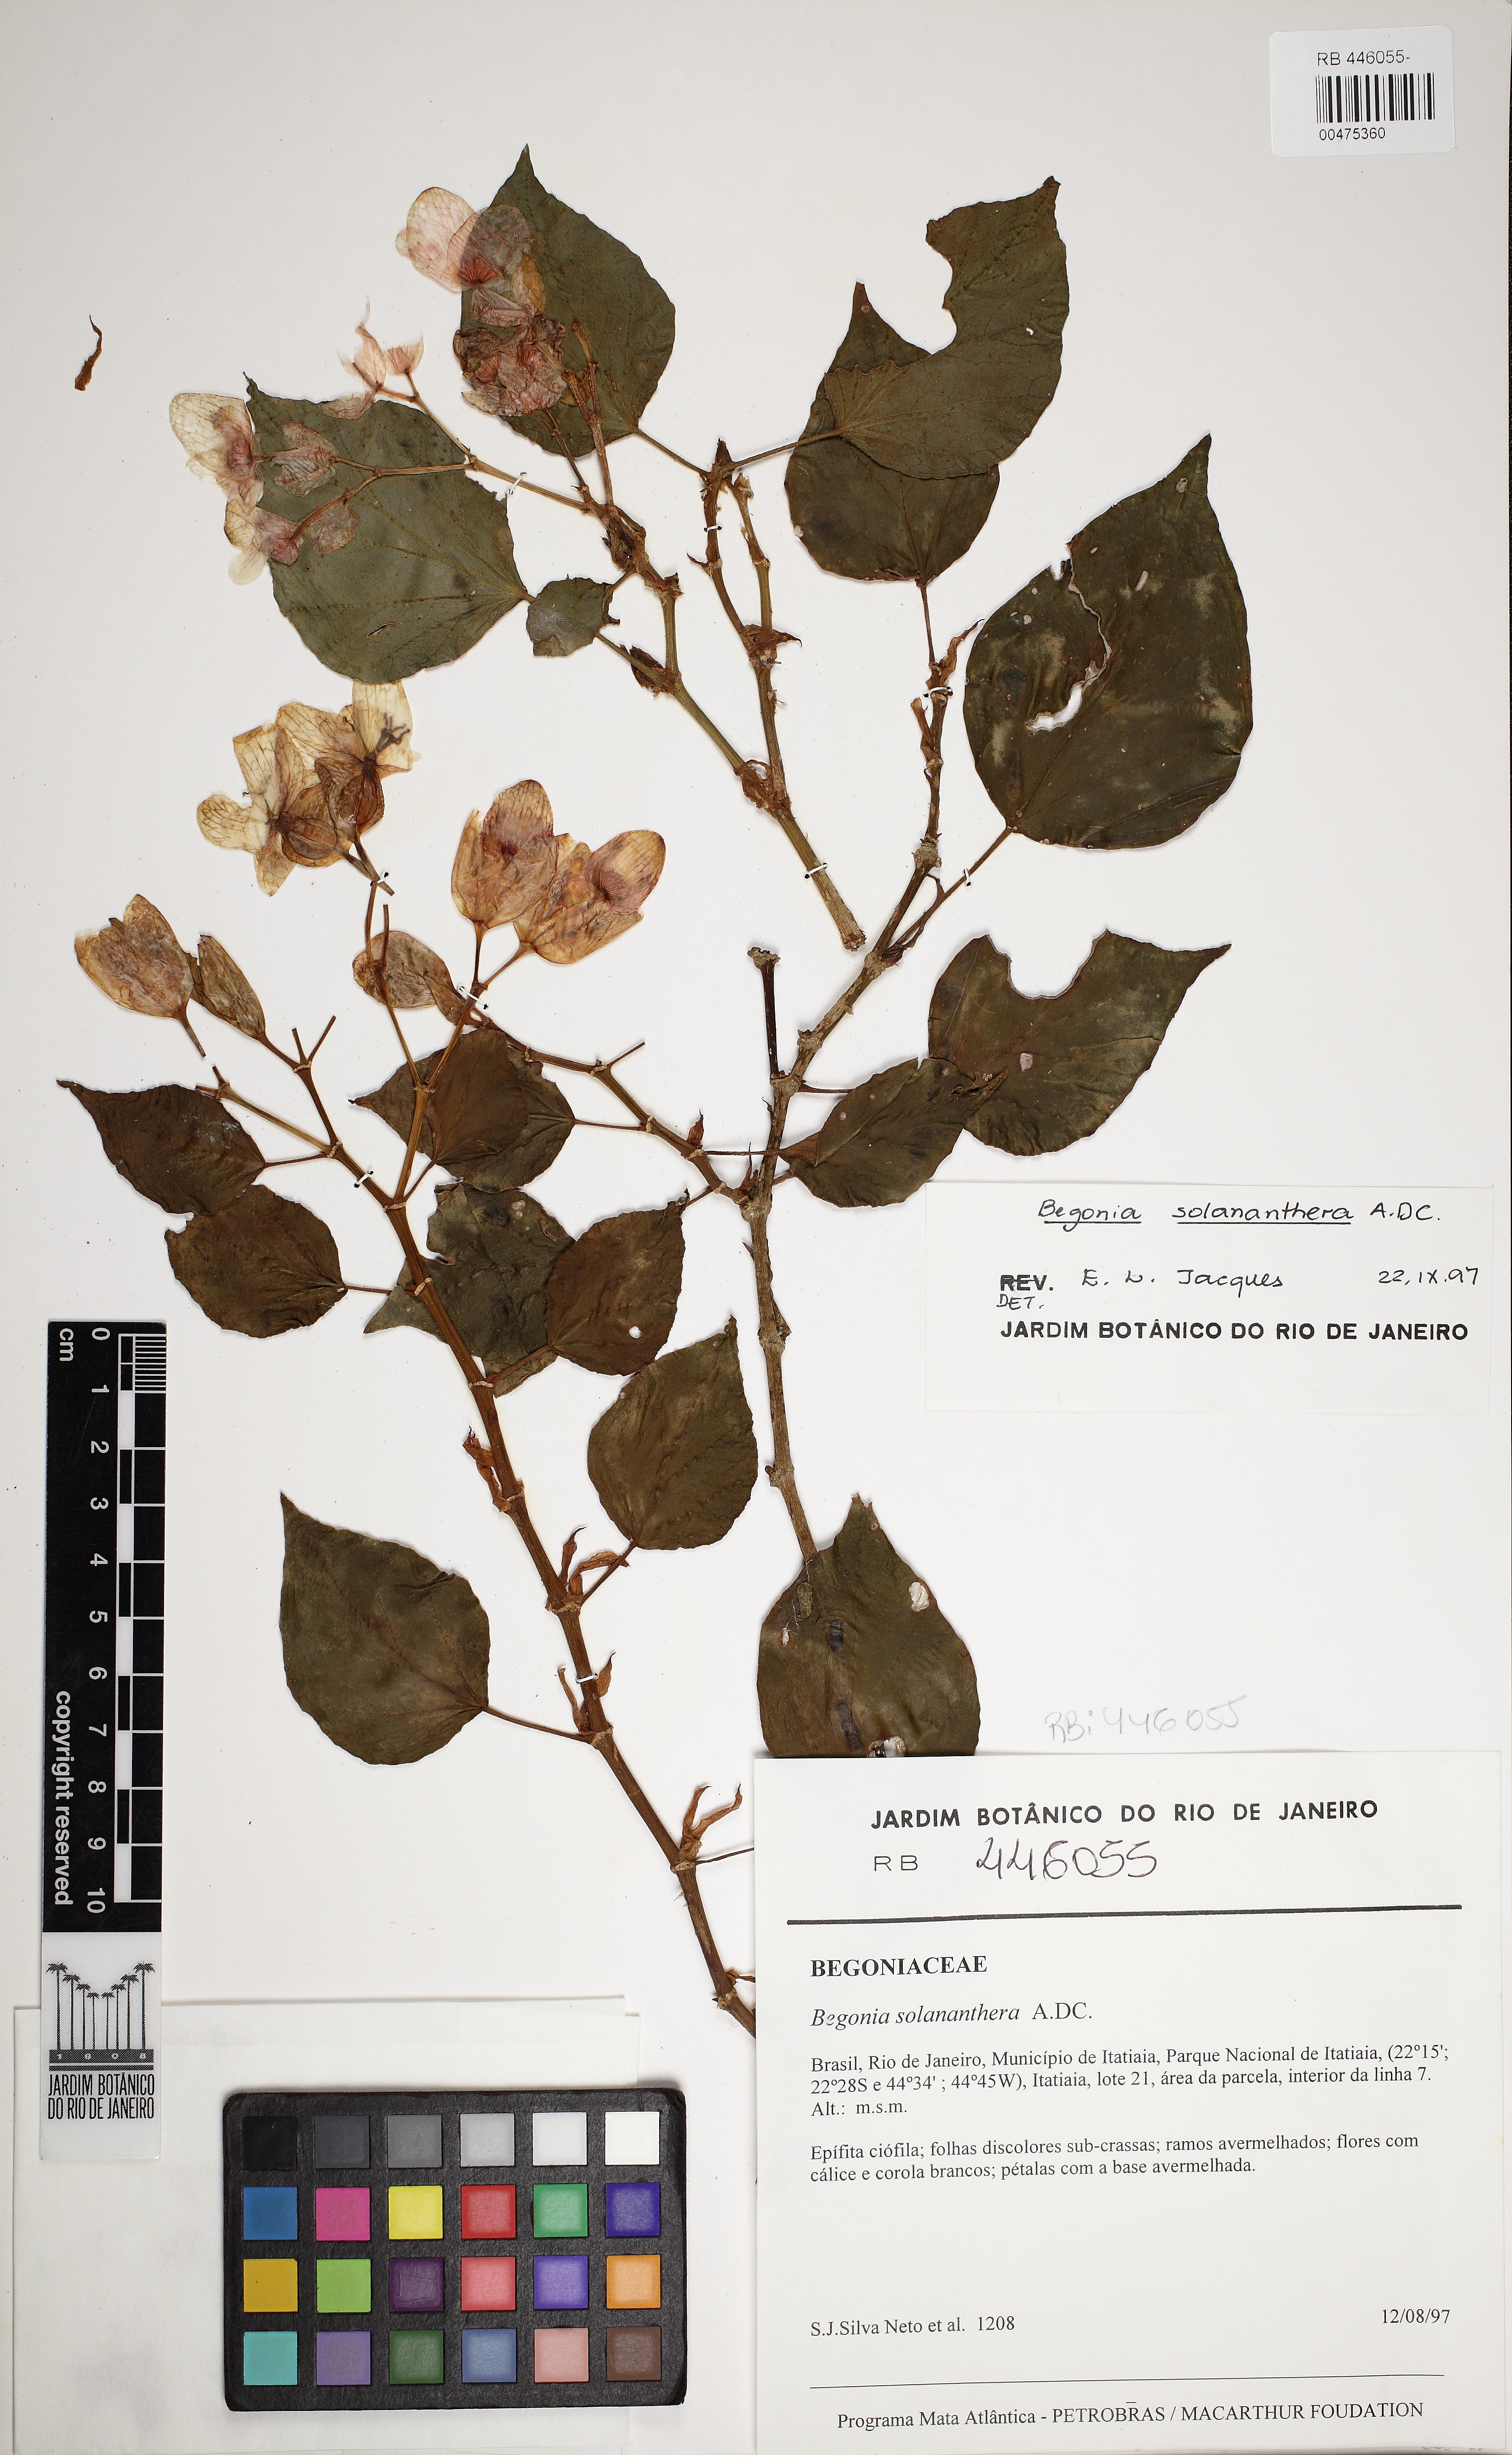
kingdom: Plantae
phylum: Tracheophyta
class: Magnoliopsida
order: Cucurbitales
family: Begoniaceae
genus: Begonia
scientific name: Begonia solananthera
